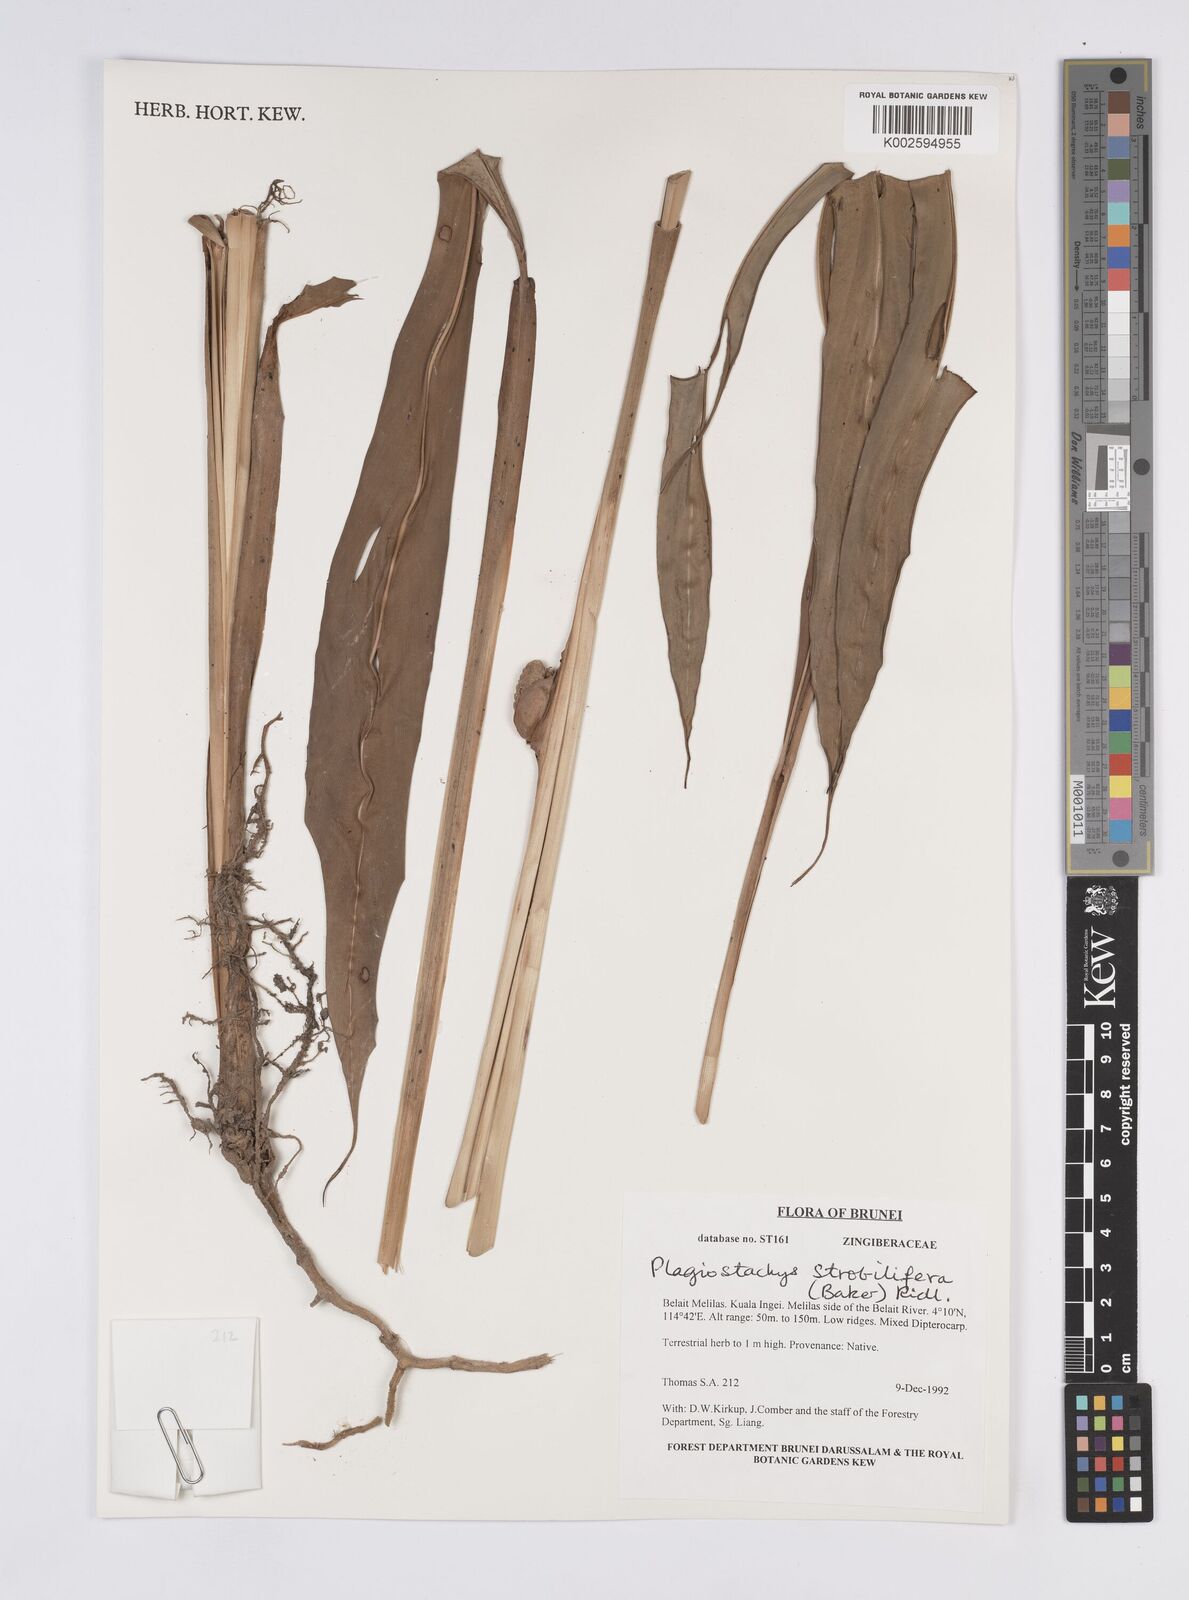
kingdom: Plantae
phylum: Tracheophyta
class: Liliopsida
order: Zingiberales
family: Zingiberaceae
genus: Plagiostachys
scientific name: Plagiostachys strobilifera
